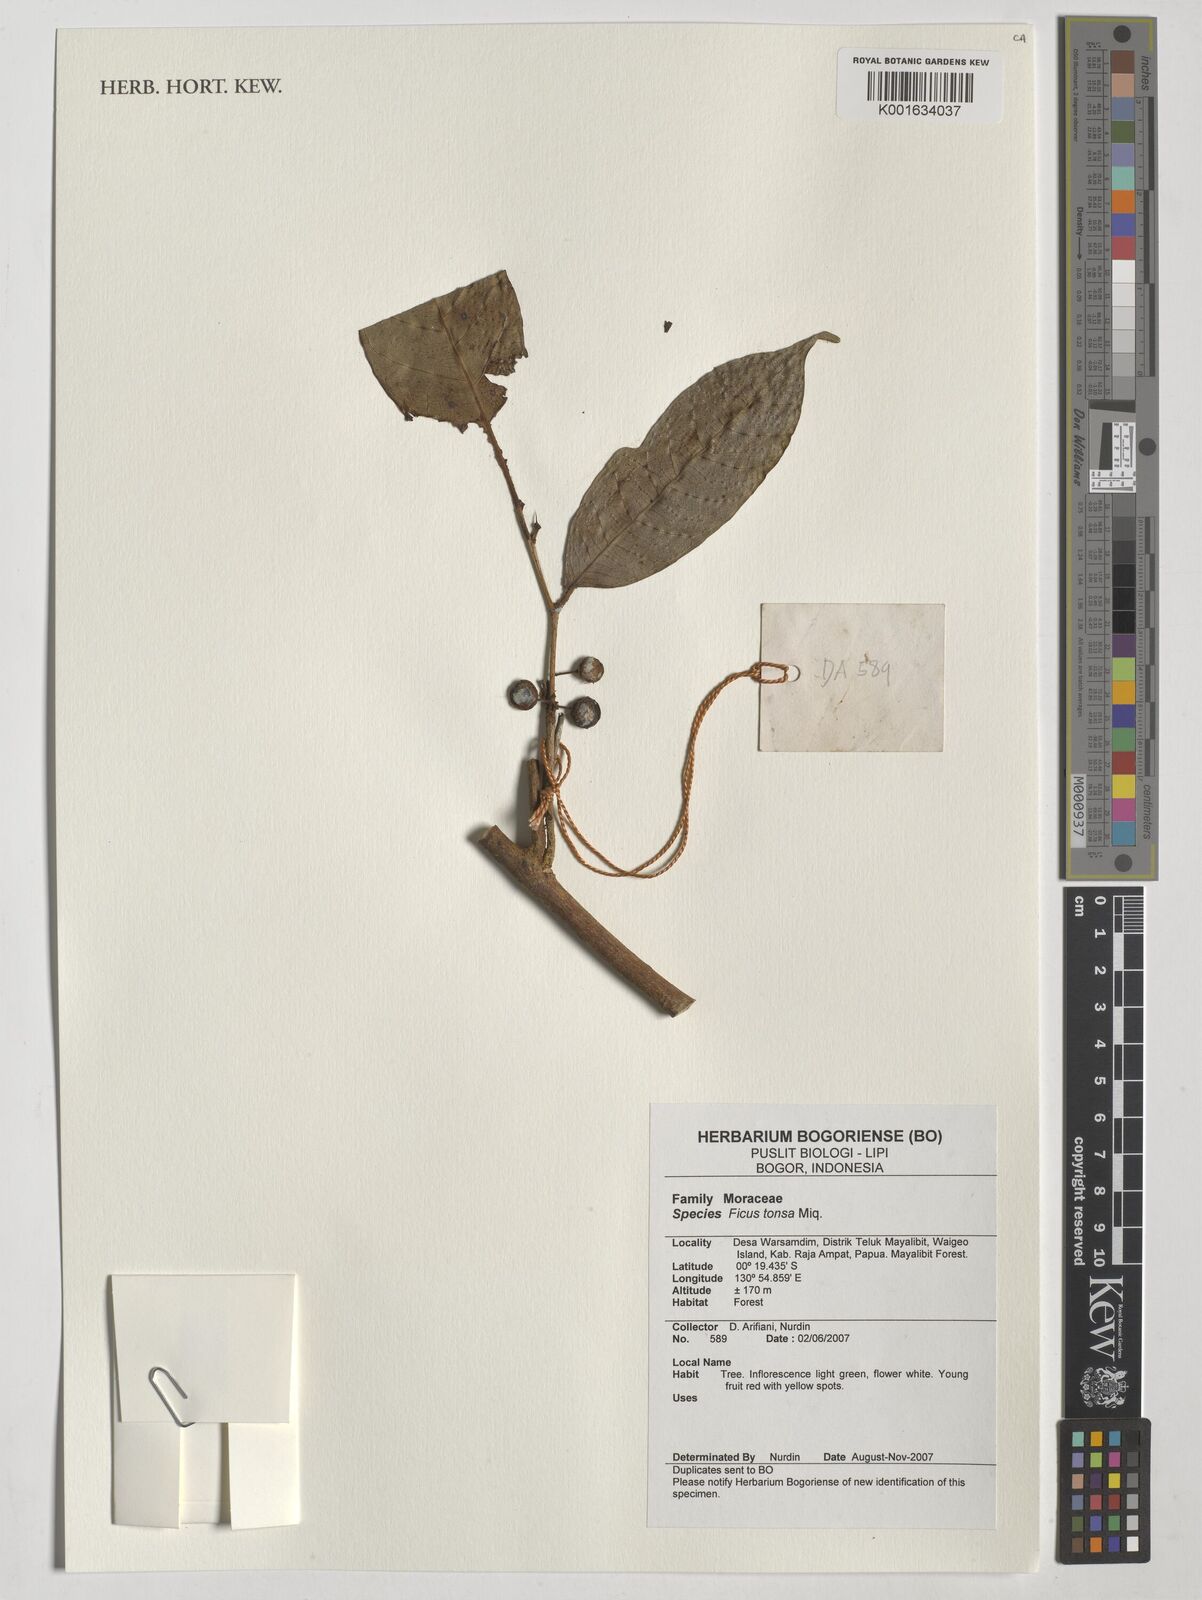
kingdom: Plantae
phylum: Tracheophyta
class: Magnoliopsida
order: Rosales
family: Moraceae
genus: Ficus
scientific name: Ficus tonsa
